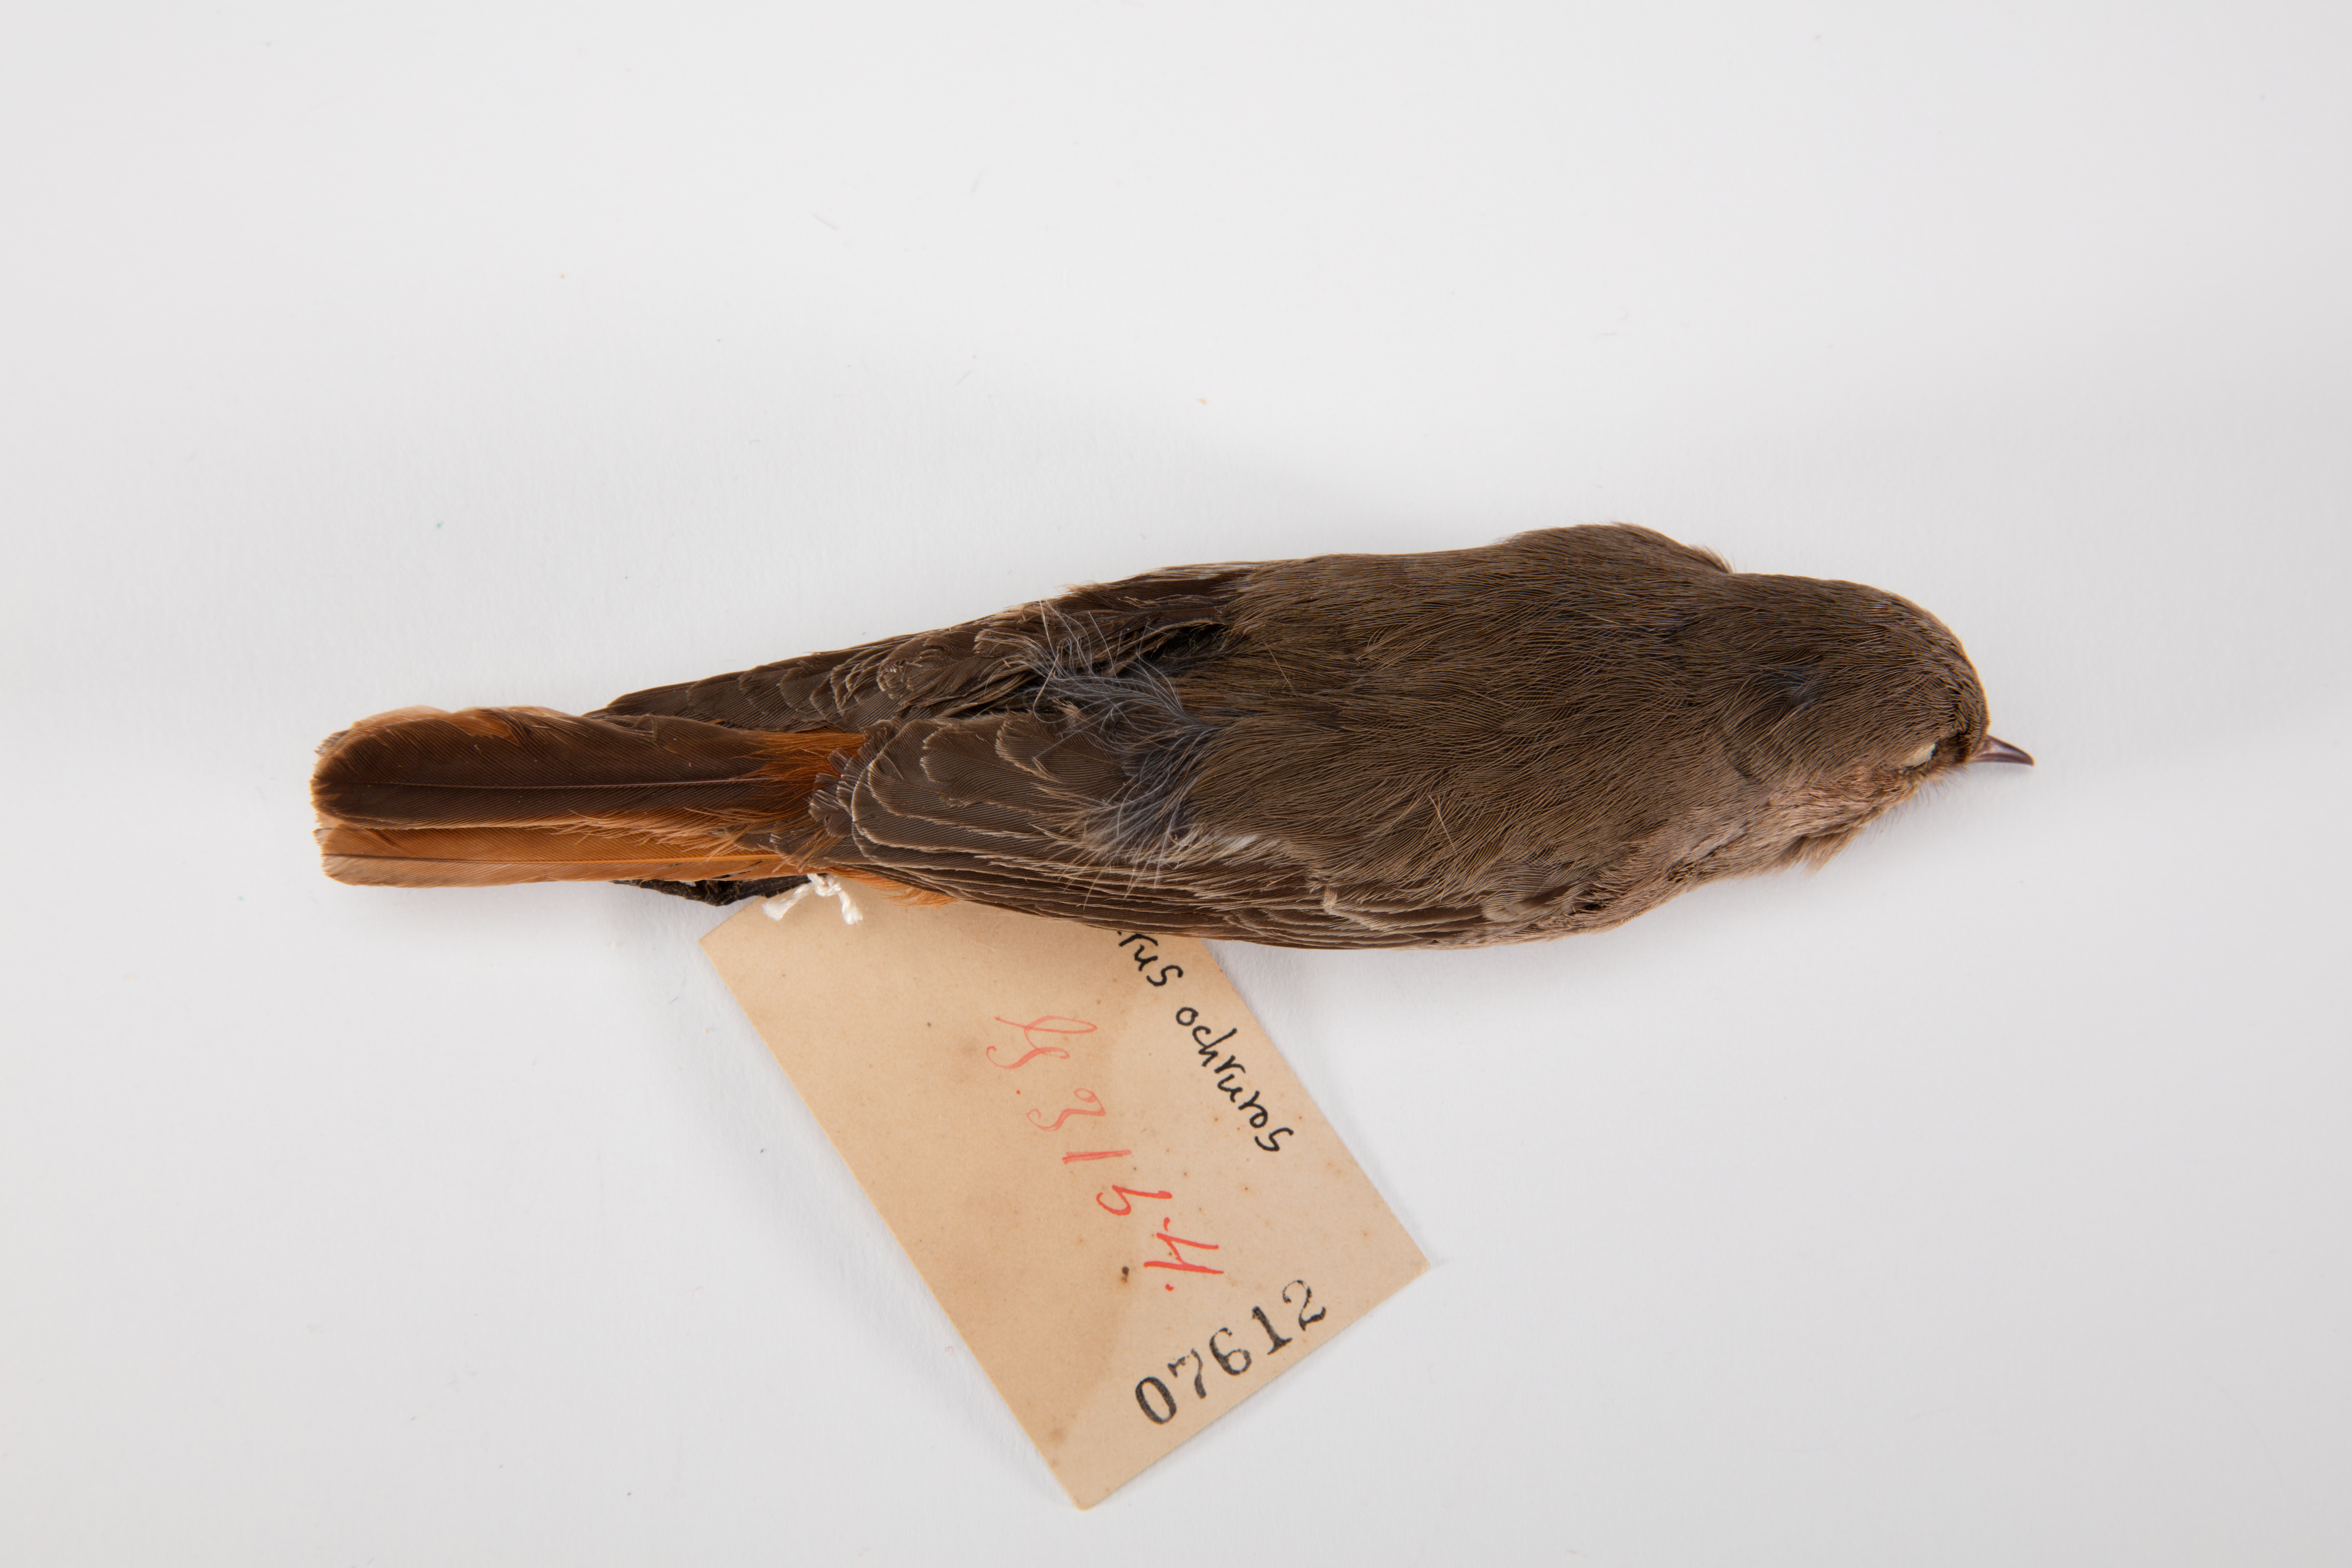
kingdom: Animalia
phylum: Chordata
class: Aves
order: Passeriformes
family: Muscicapidae
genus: Phoenicurus
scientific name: Phoenicurus ochruros
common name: Black redstart
